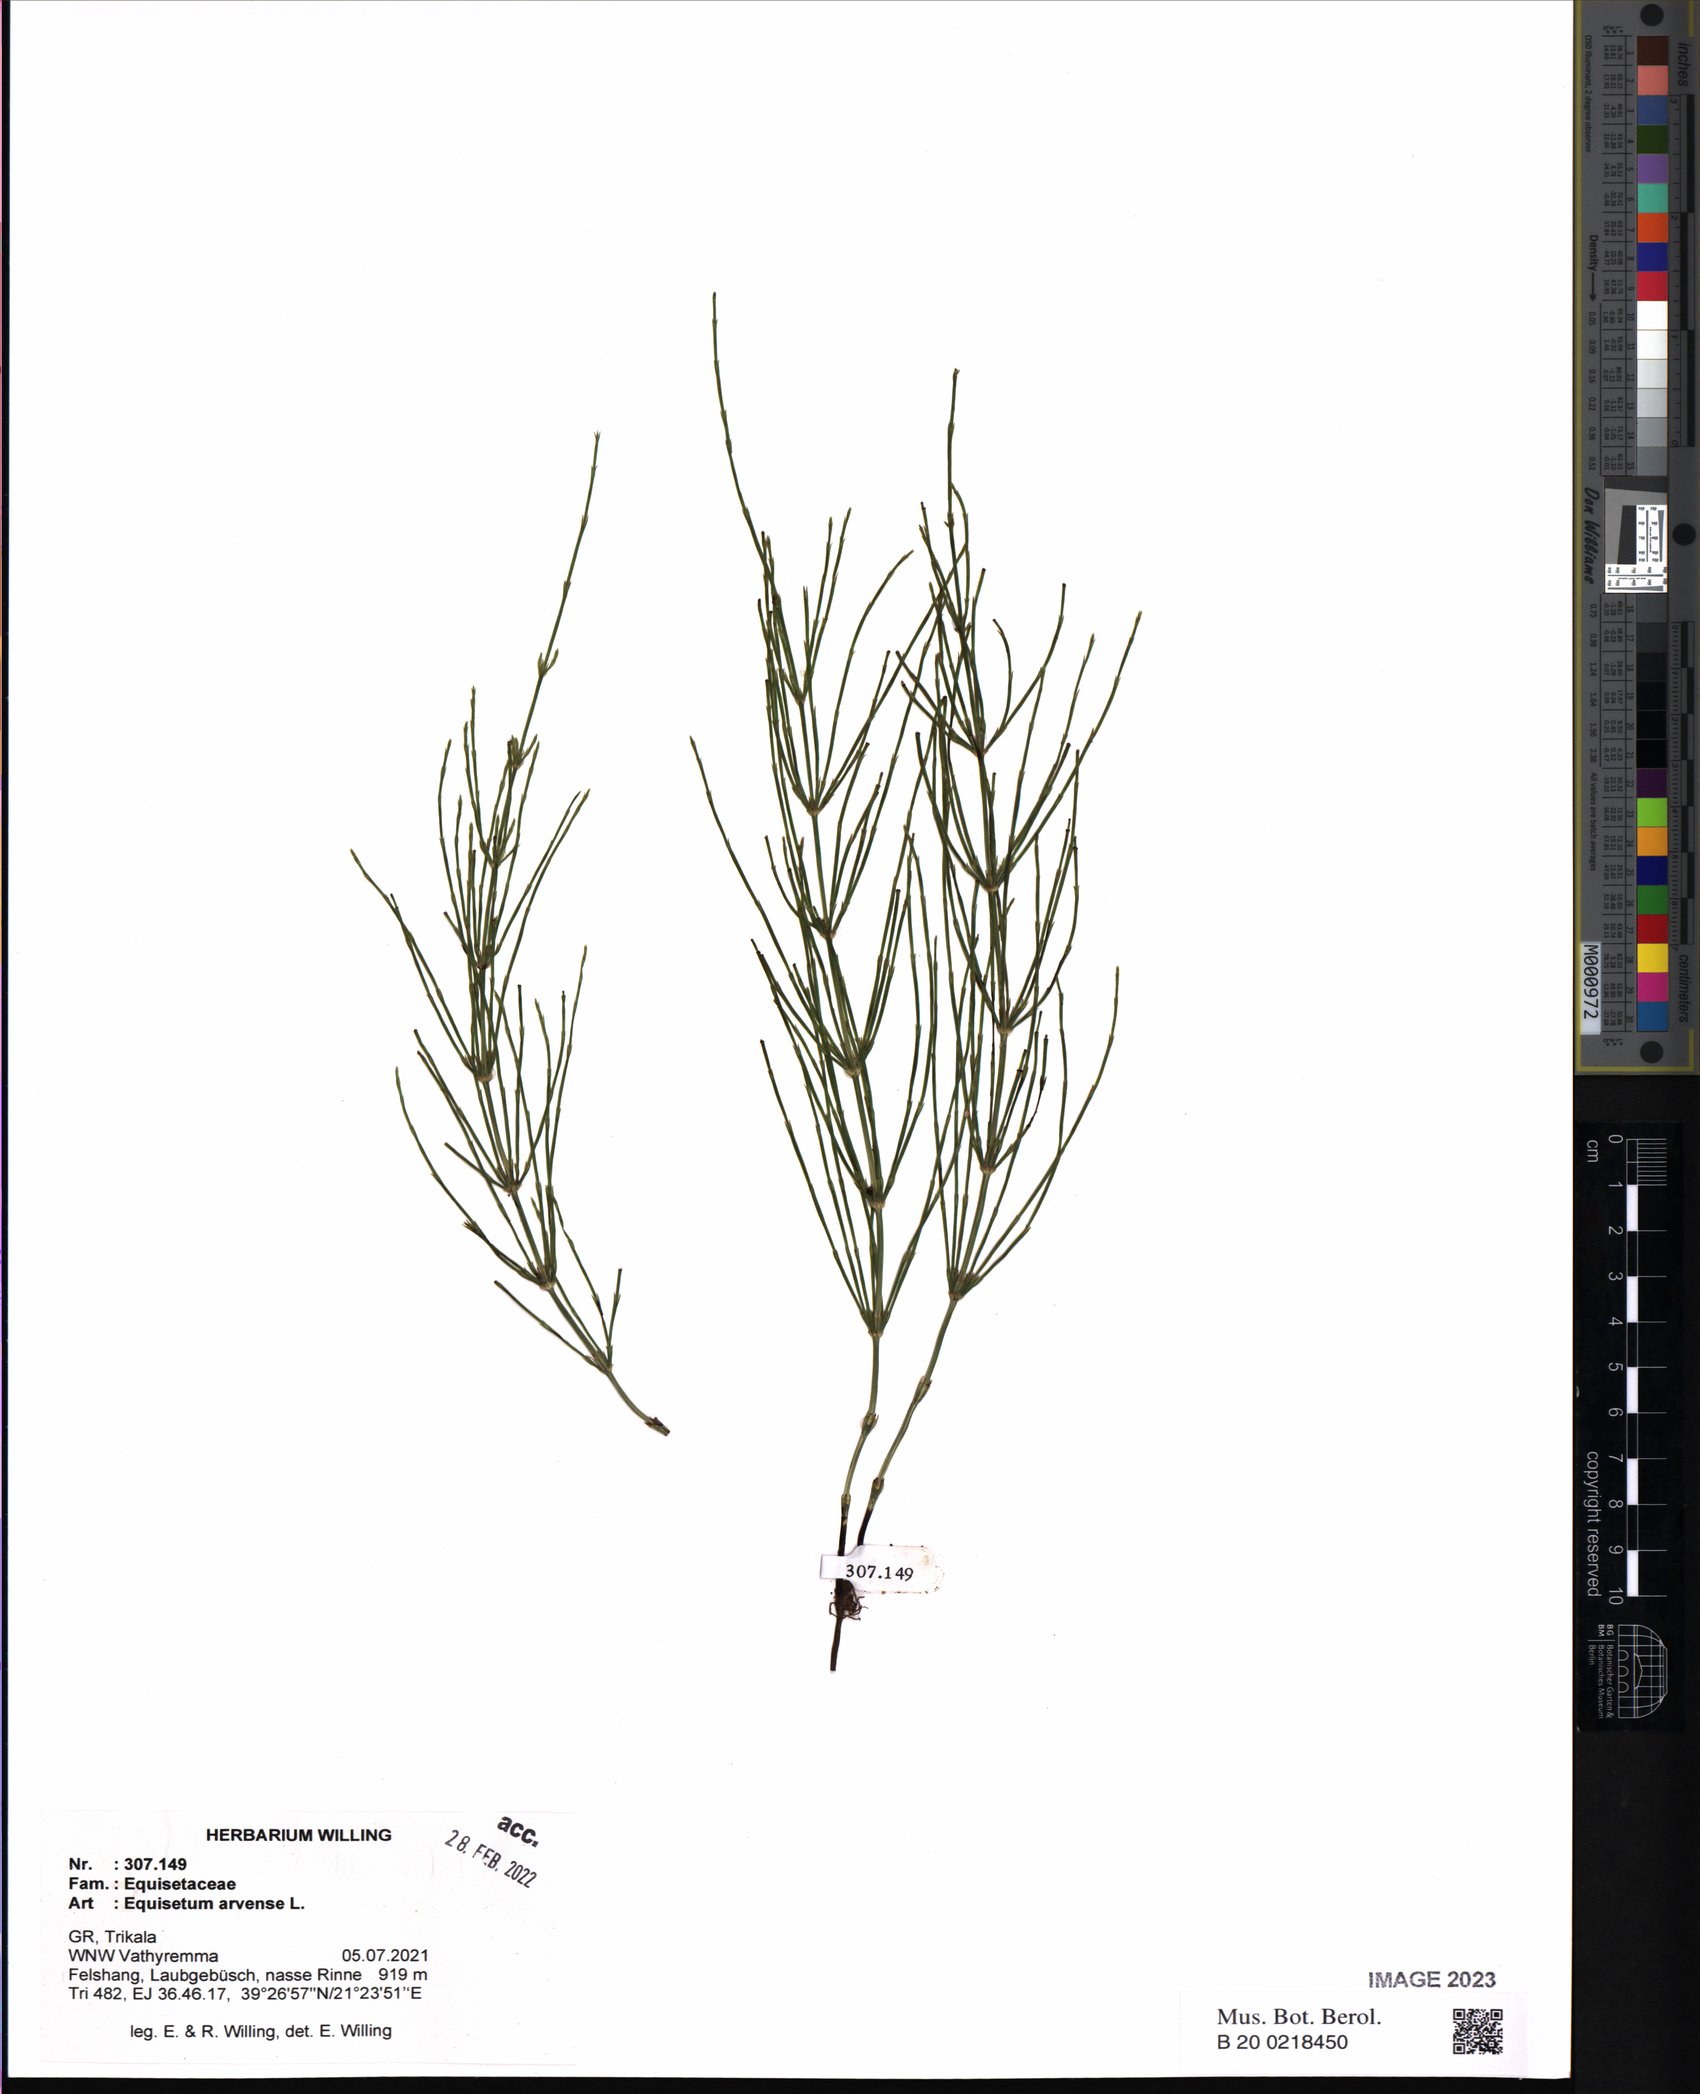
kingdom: Plantae
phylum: Tracheophyta
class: Polypodiopsida
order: Equisetales
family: Equisetaceae
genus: Equisetum
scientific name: Equisetum arvense
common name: Field horsetail
